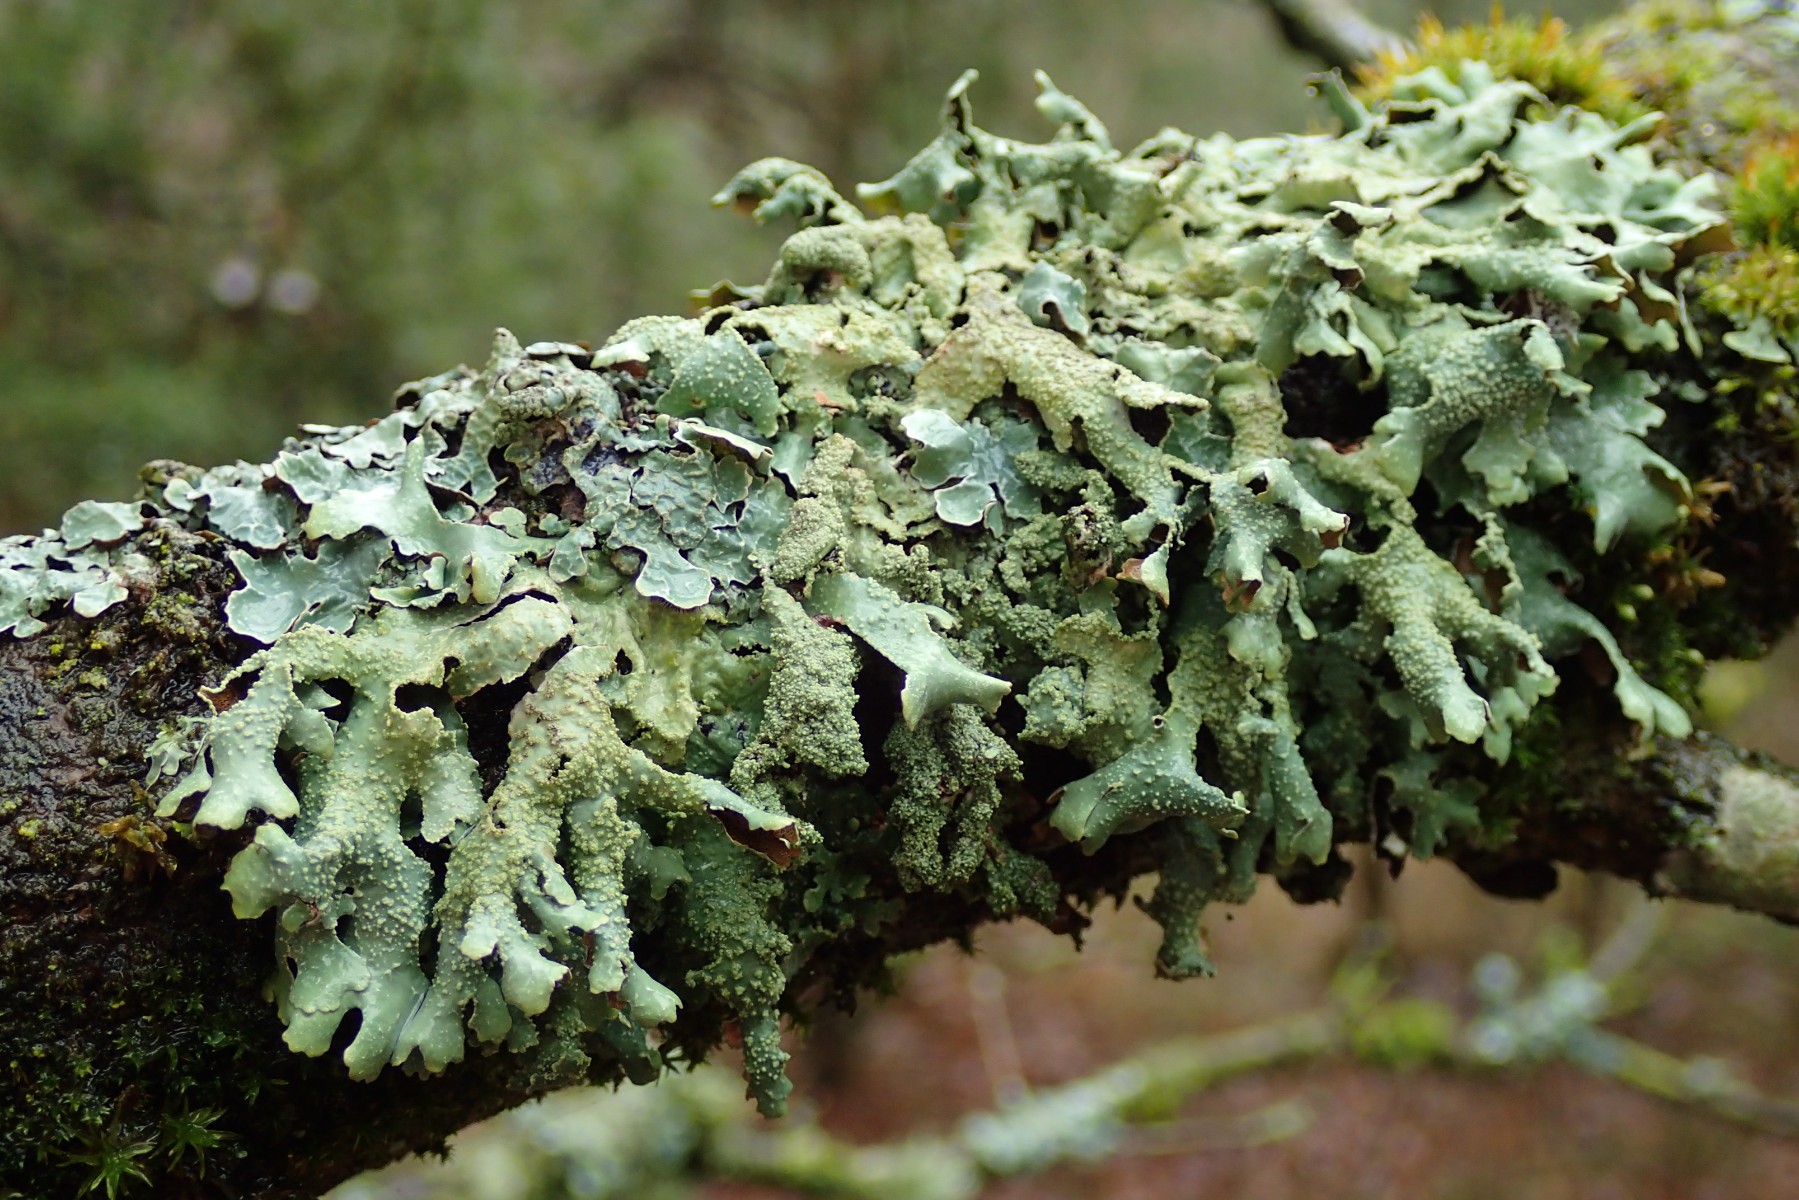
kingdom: Fungi
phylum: Ascomycota
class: Lecanoromycetes
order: Lecanorales
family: Parmeliaceae
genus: Parmelia
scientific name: Parmelia submontana
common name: langlobet skållav
